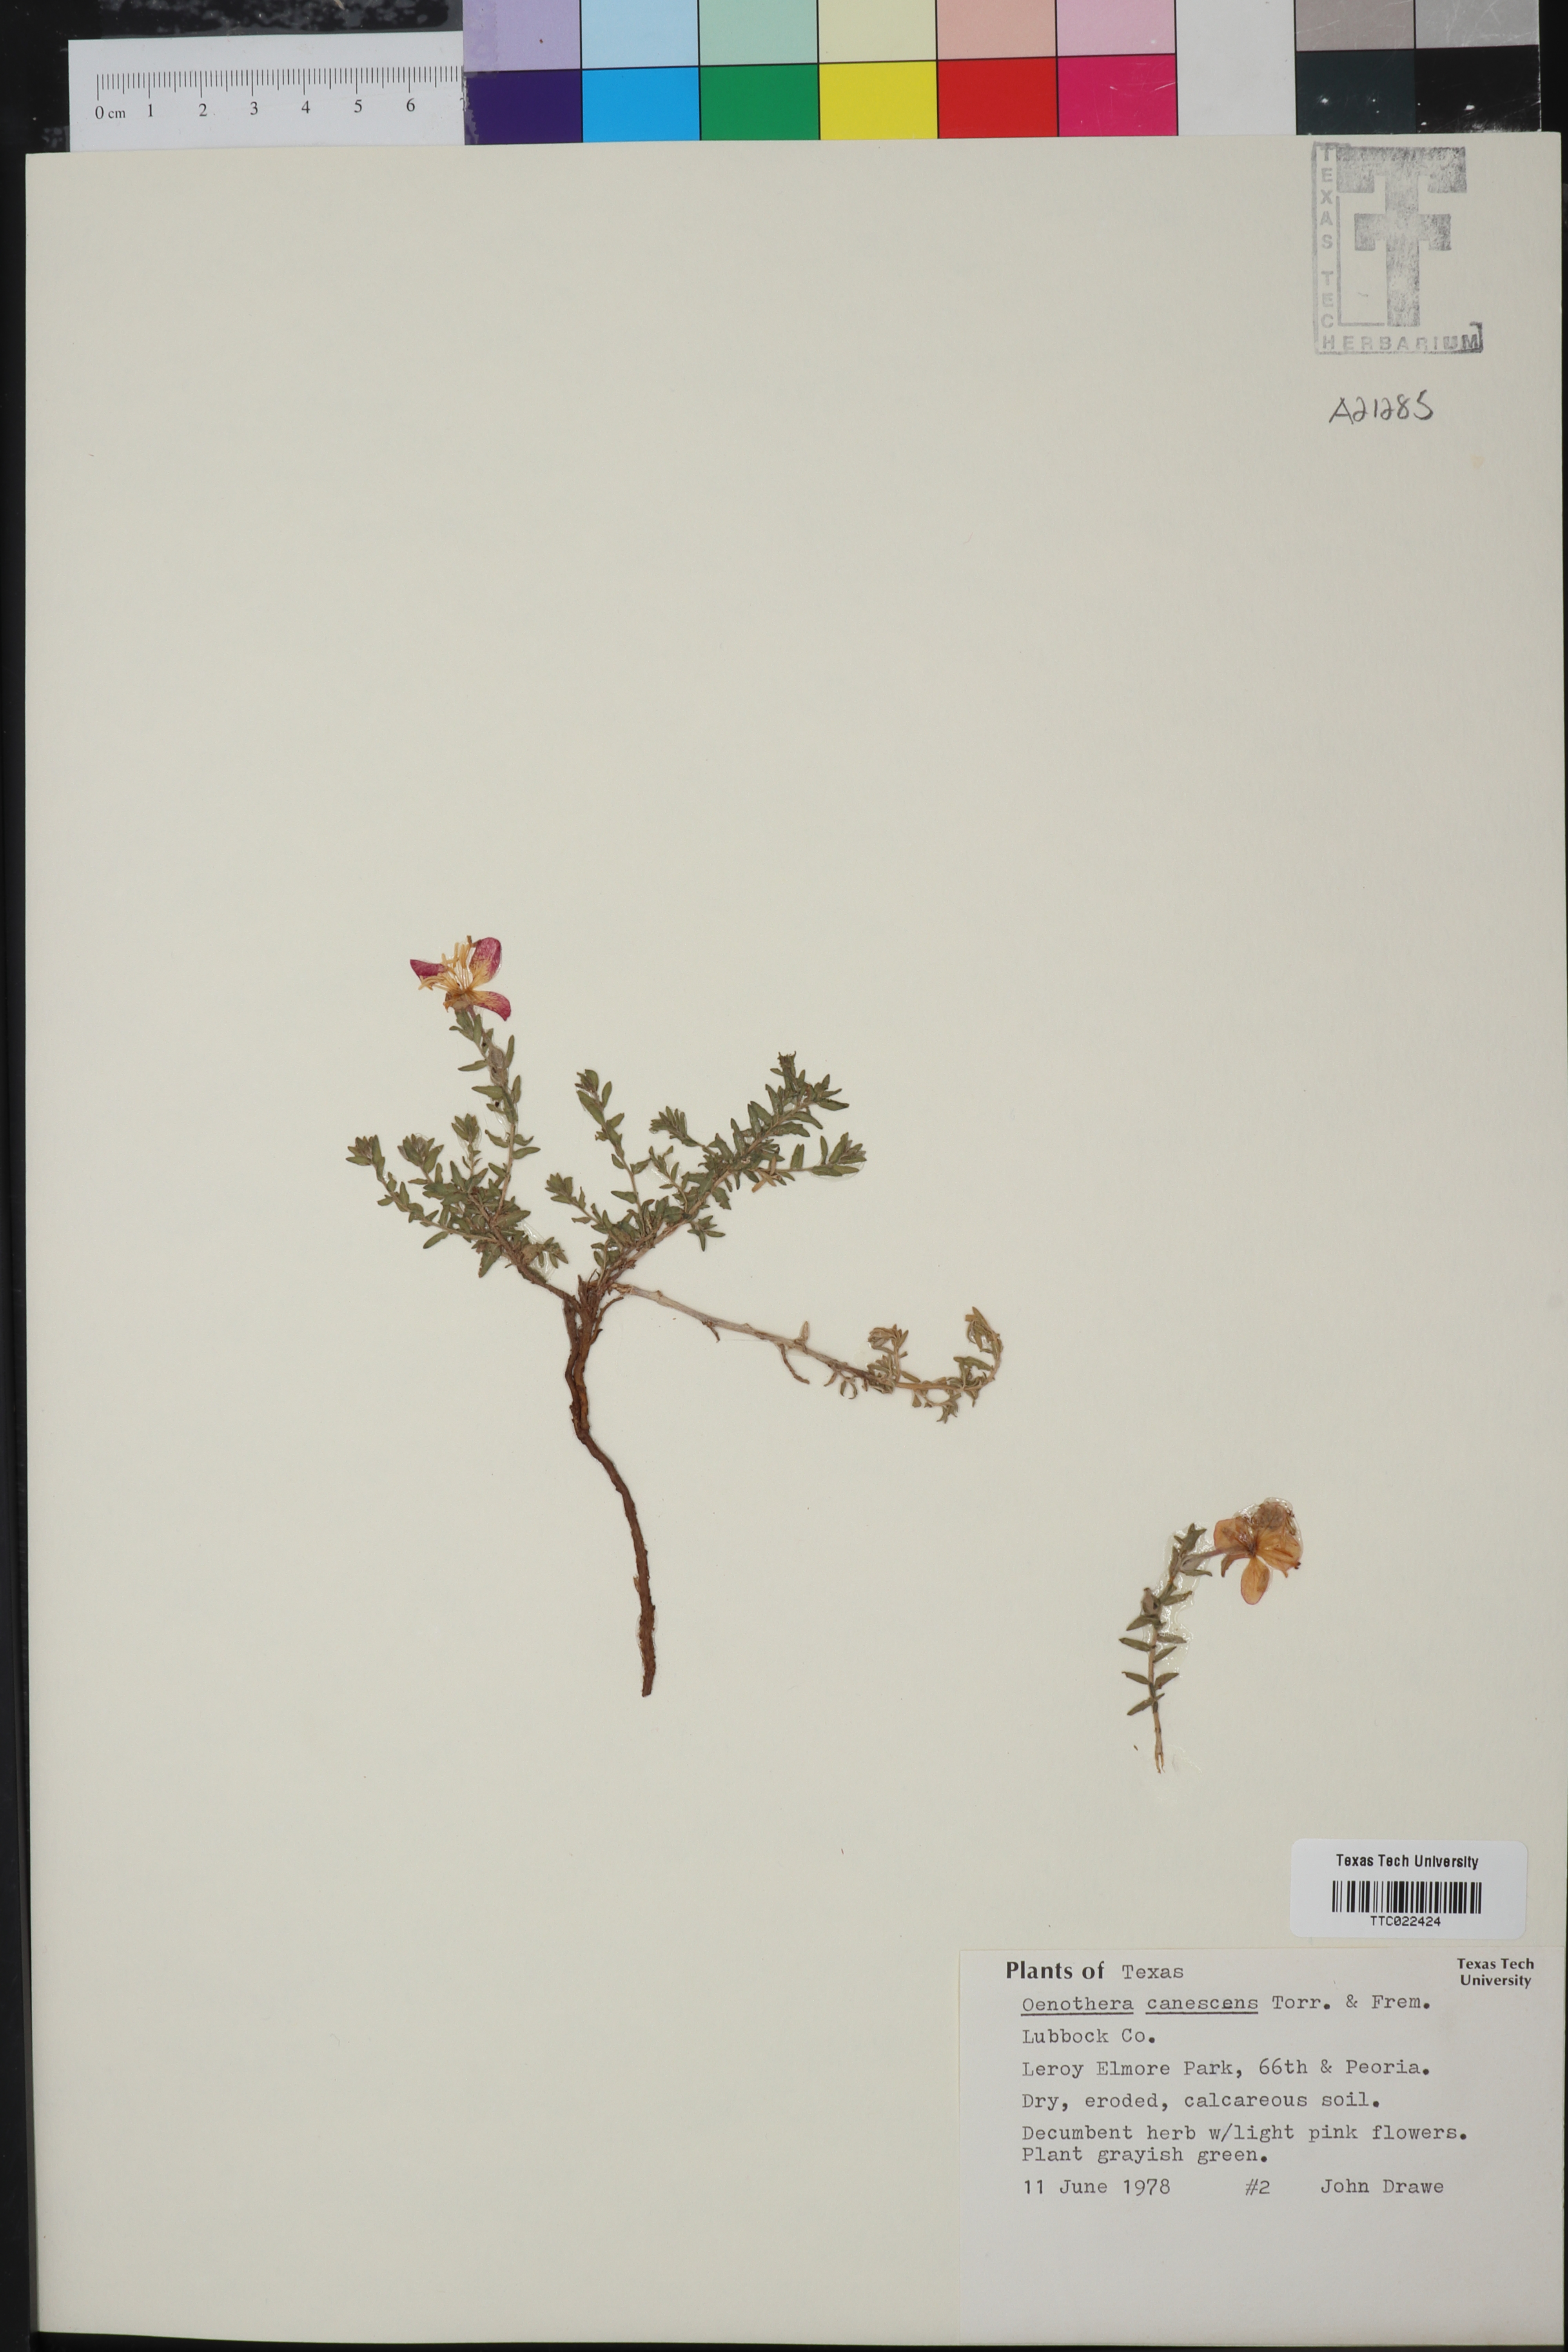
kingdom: Plantae
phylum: Tracheophyta
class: Magnoliopsida
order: Myrtales
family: Onagraceae
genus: Oenothera
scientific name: Oenothera canescens
